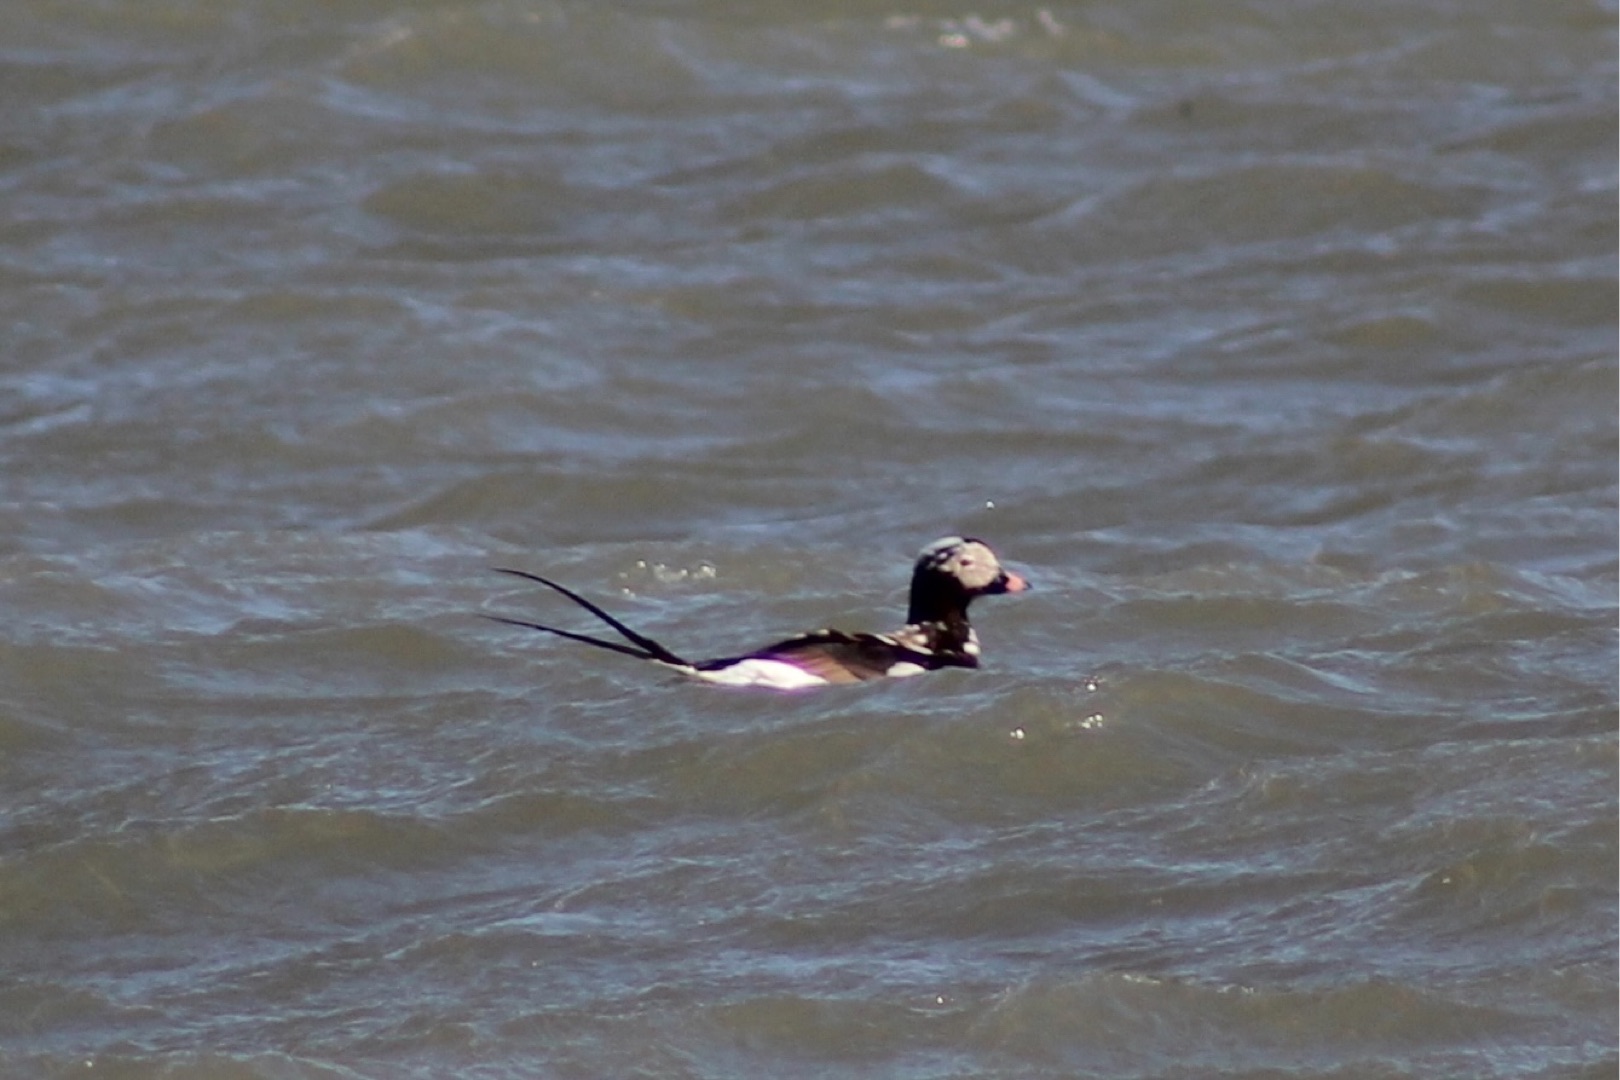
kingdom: Animalia
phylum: Chordata
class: Aves
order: Anseriformes
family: Anatidae
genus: Clangula
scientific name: Clangula hyemalis
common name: Havlit
